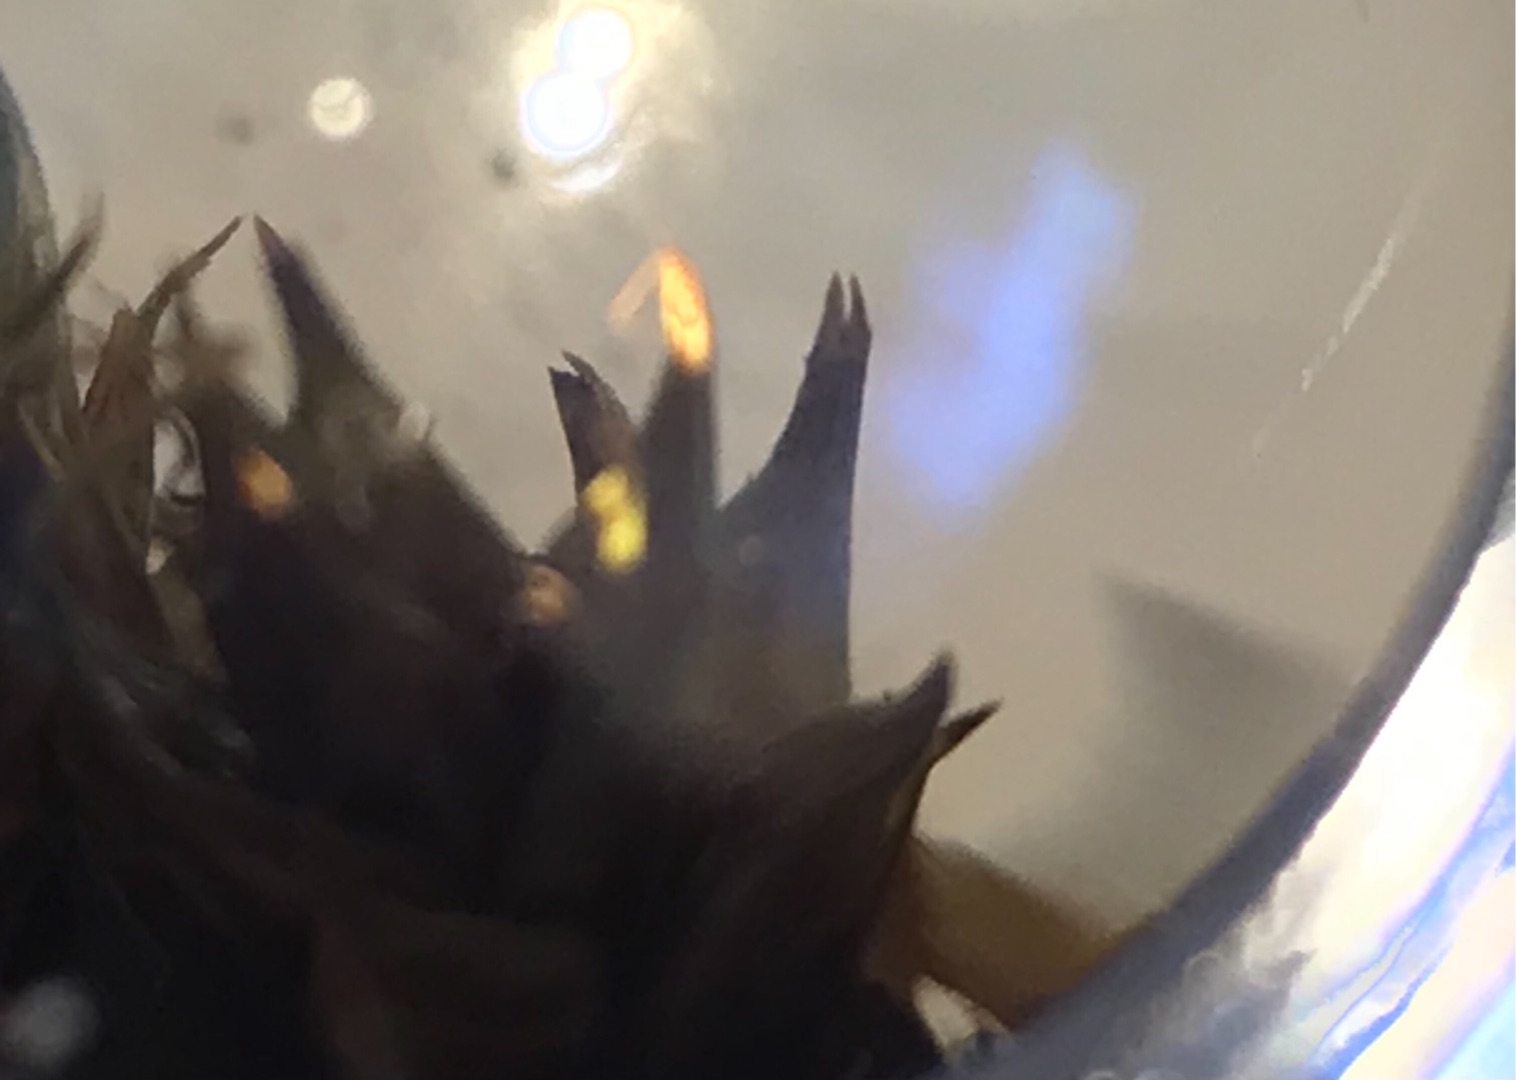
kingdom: Plantae
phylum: Tracheophyta
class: Liliopsida
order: Poales
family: Cyperaceae
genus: Carex
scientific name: Carex otrubae
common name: Sylt-star
